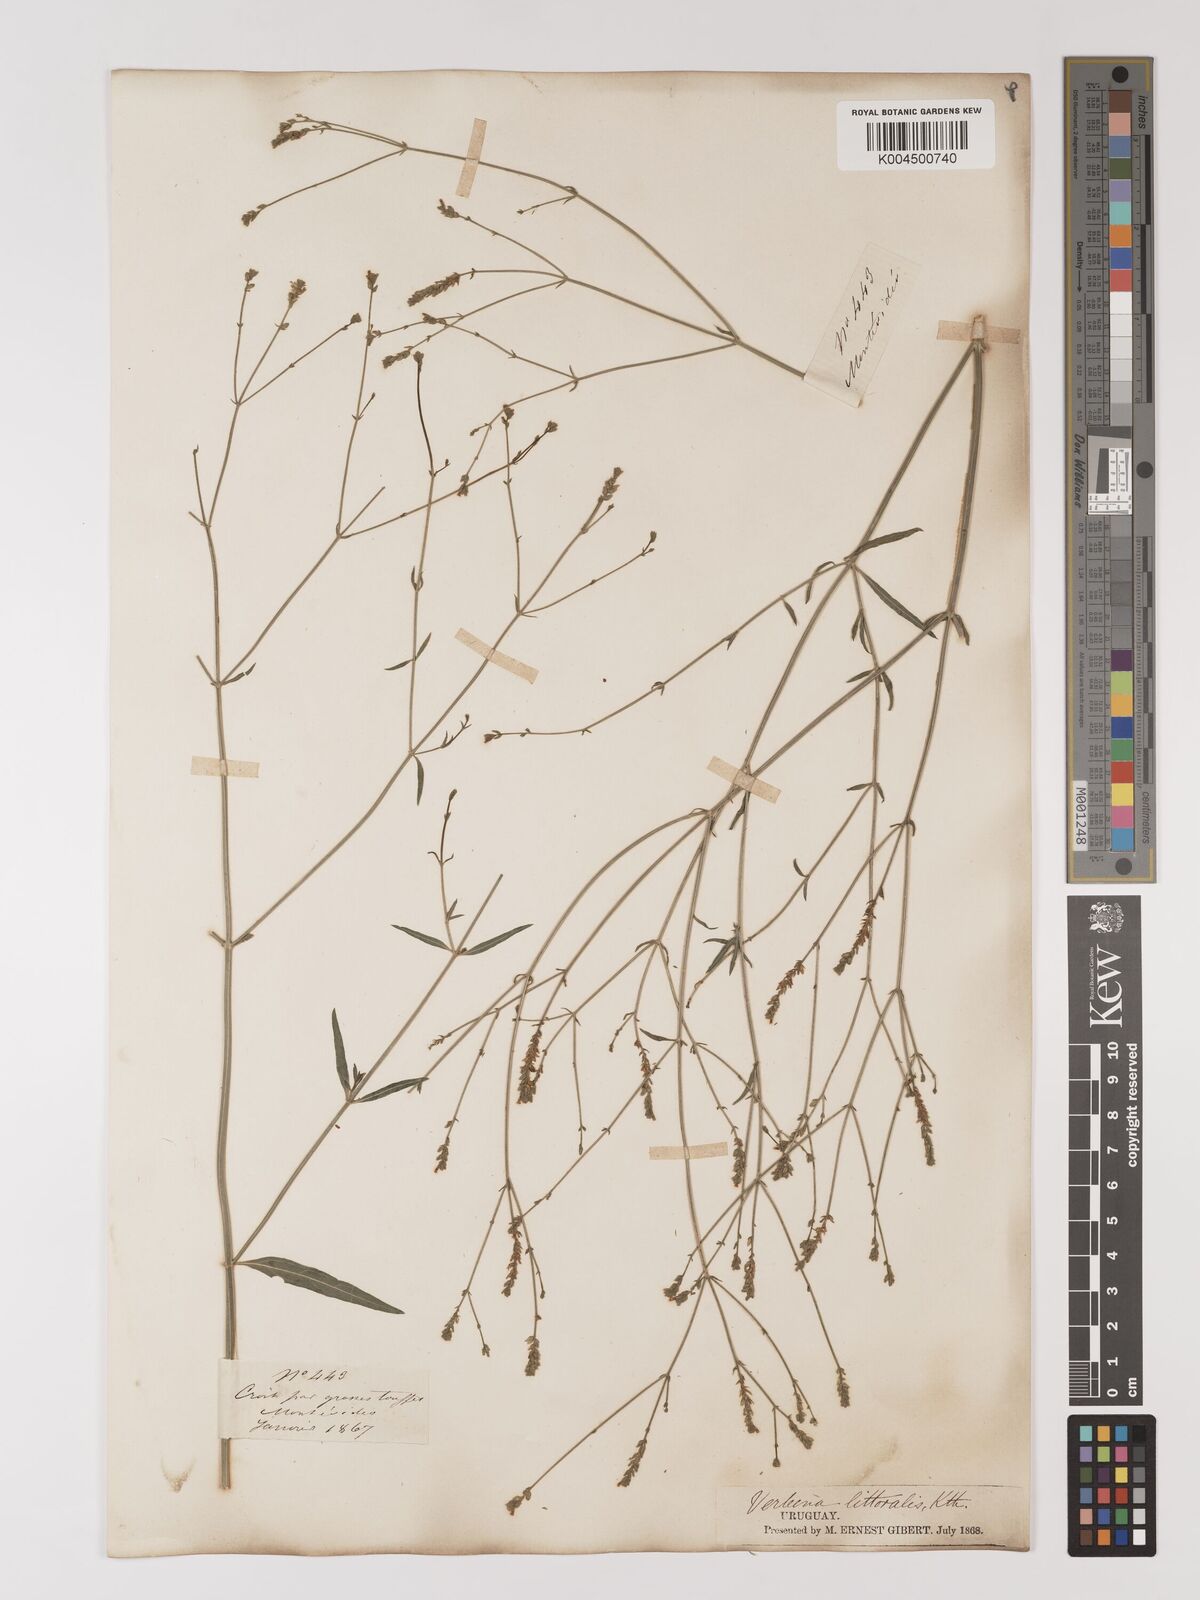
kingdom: Plantae
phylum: Tracheophyta
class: Magnoliopsida
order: Lamiales
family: Verbenaceae
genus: Verbena
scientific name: Verbena litoralis
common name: Seashore vervain
